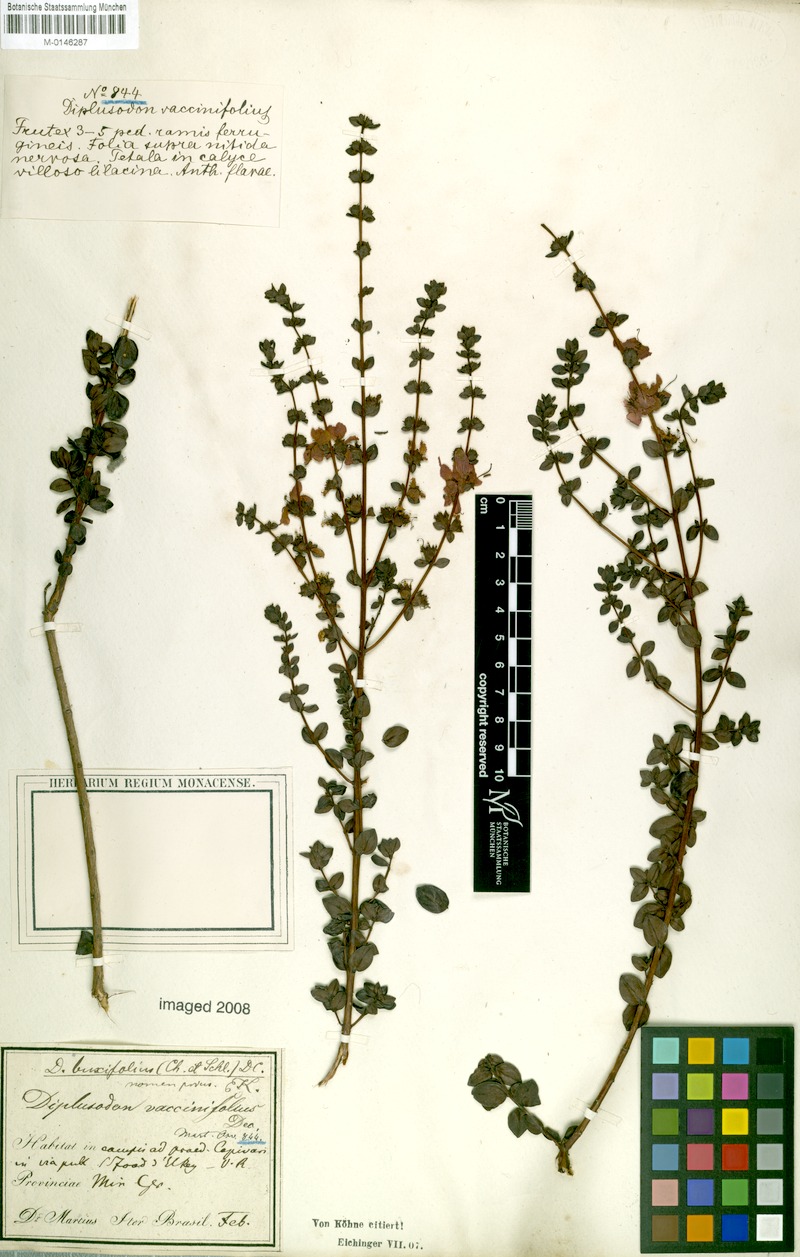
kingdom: Plantae
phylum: Tracheophyta
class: Magnoliopsida
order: Myrtales
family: Lythraceae
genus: Diplusodon
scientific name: Diplusodon buxifolius
